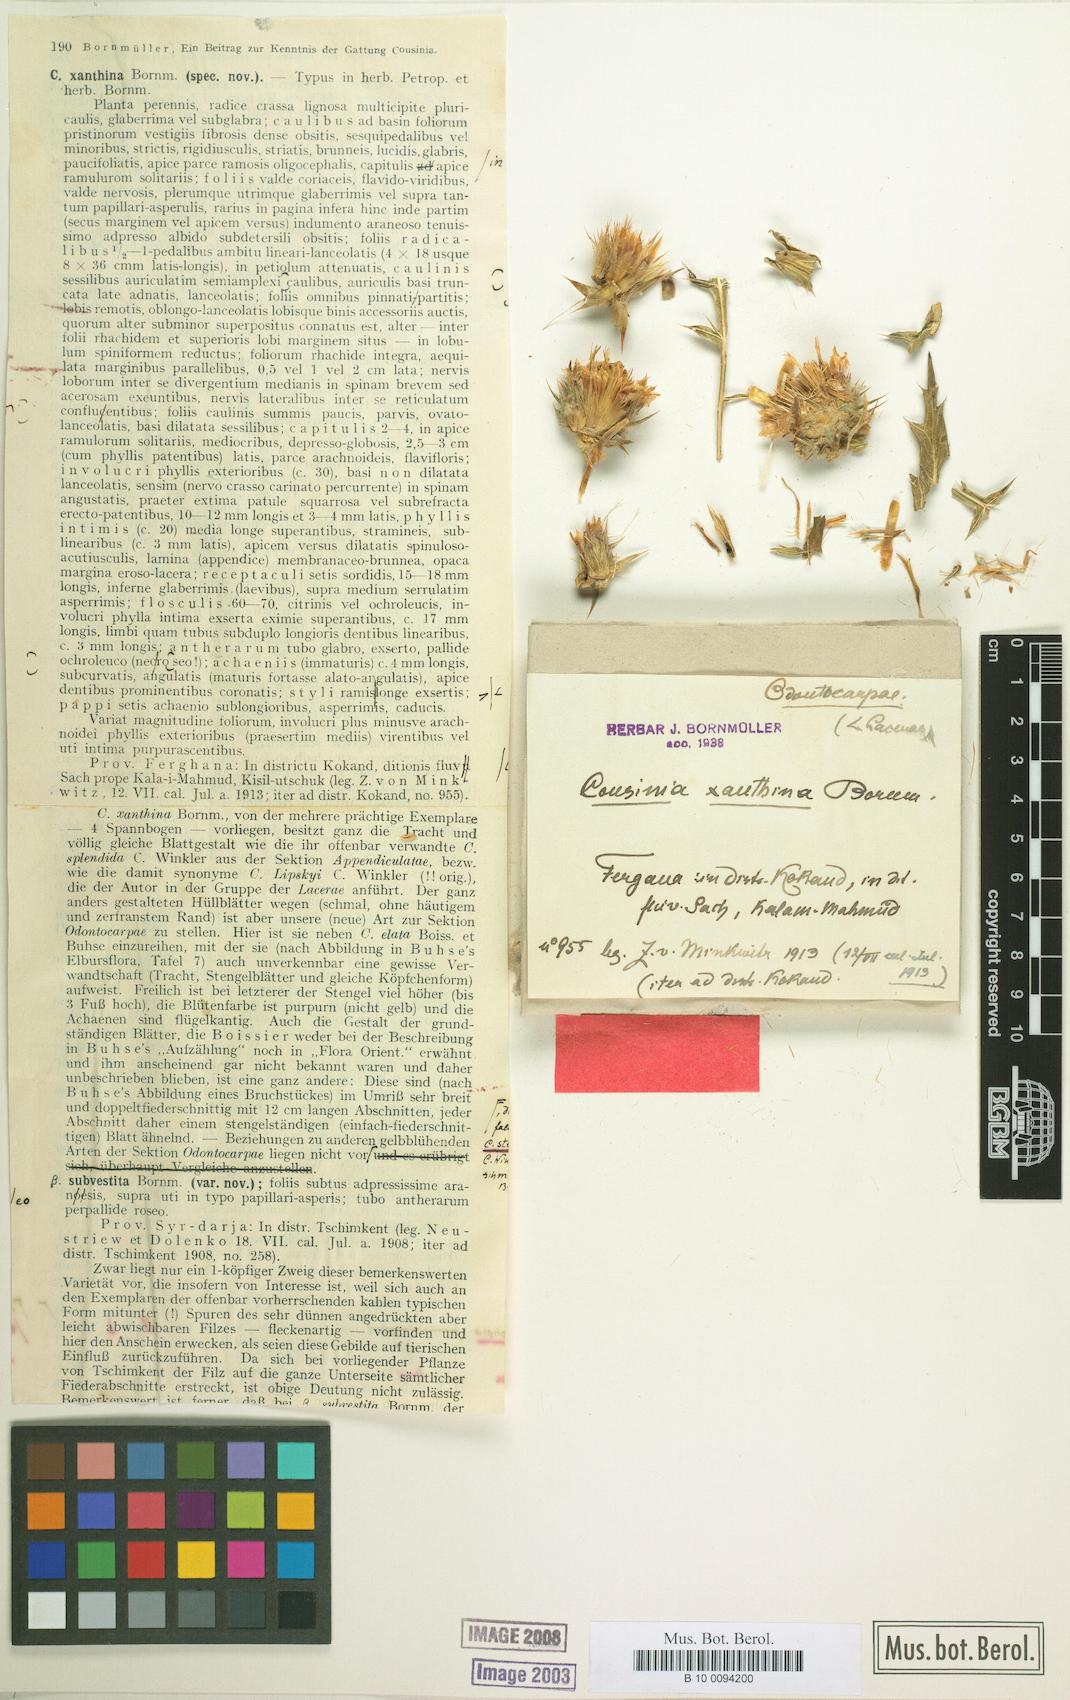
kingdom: Plantae
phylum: Tracheophyta
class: Magnoliopsida
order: Asterales
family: Asteraceae
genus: Cousinia
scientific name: Cousinia xanthina
